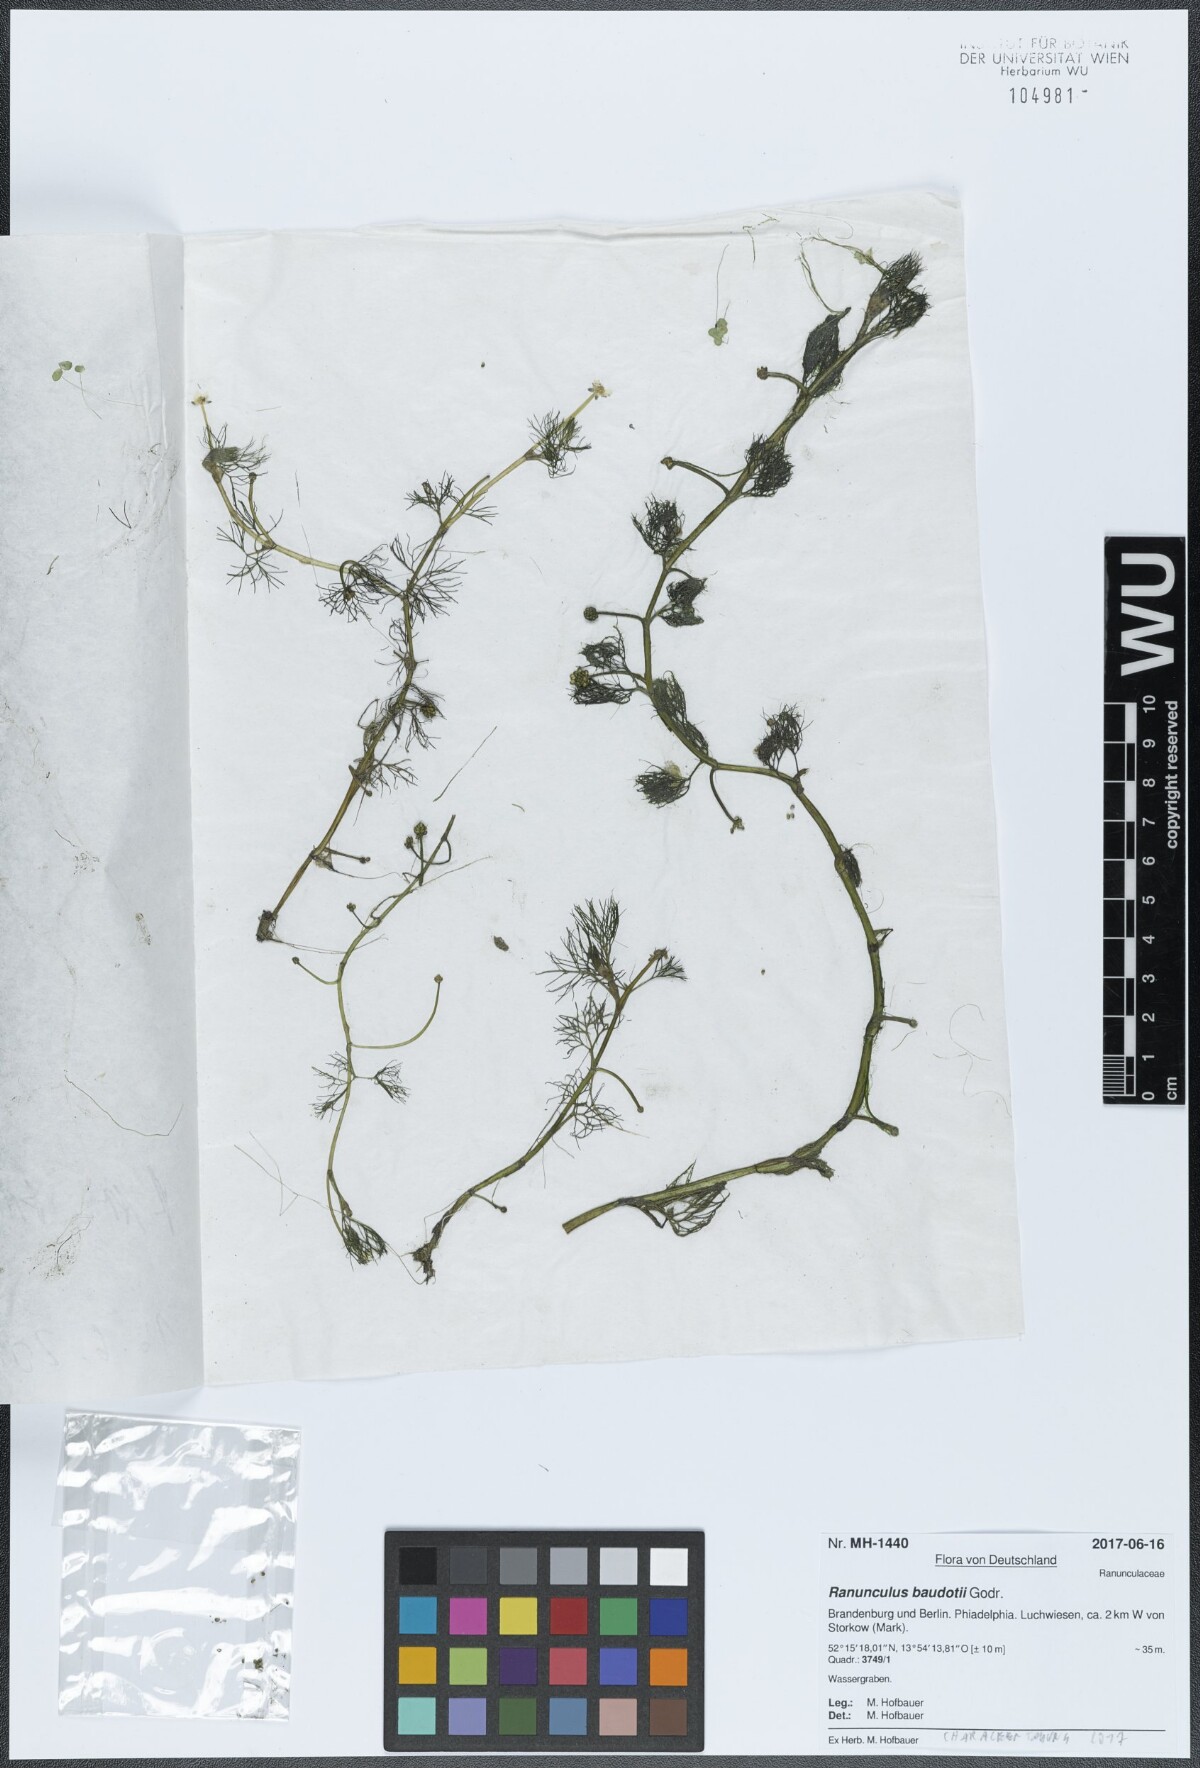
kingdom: Plantae
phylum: Tracheophyta
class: Magnoliopsida
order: Ranunculales
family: Ranunculaceae
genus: Ranunculus
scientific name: Ranunculus peltatus
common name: Pond water-crowfoot
